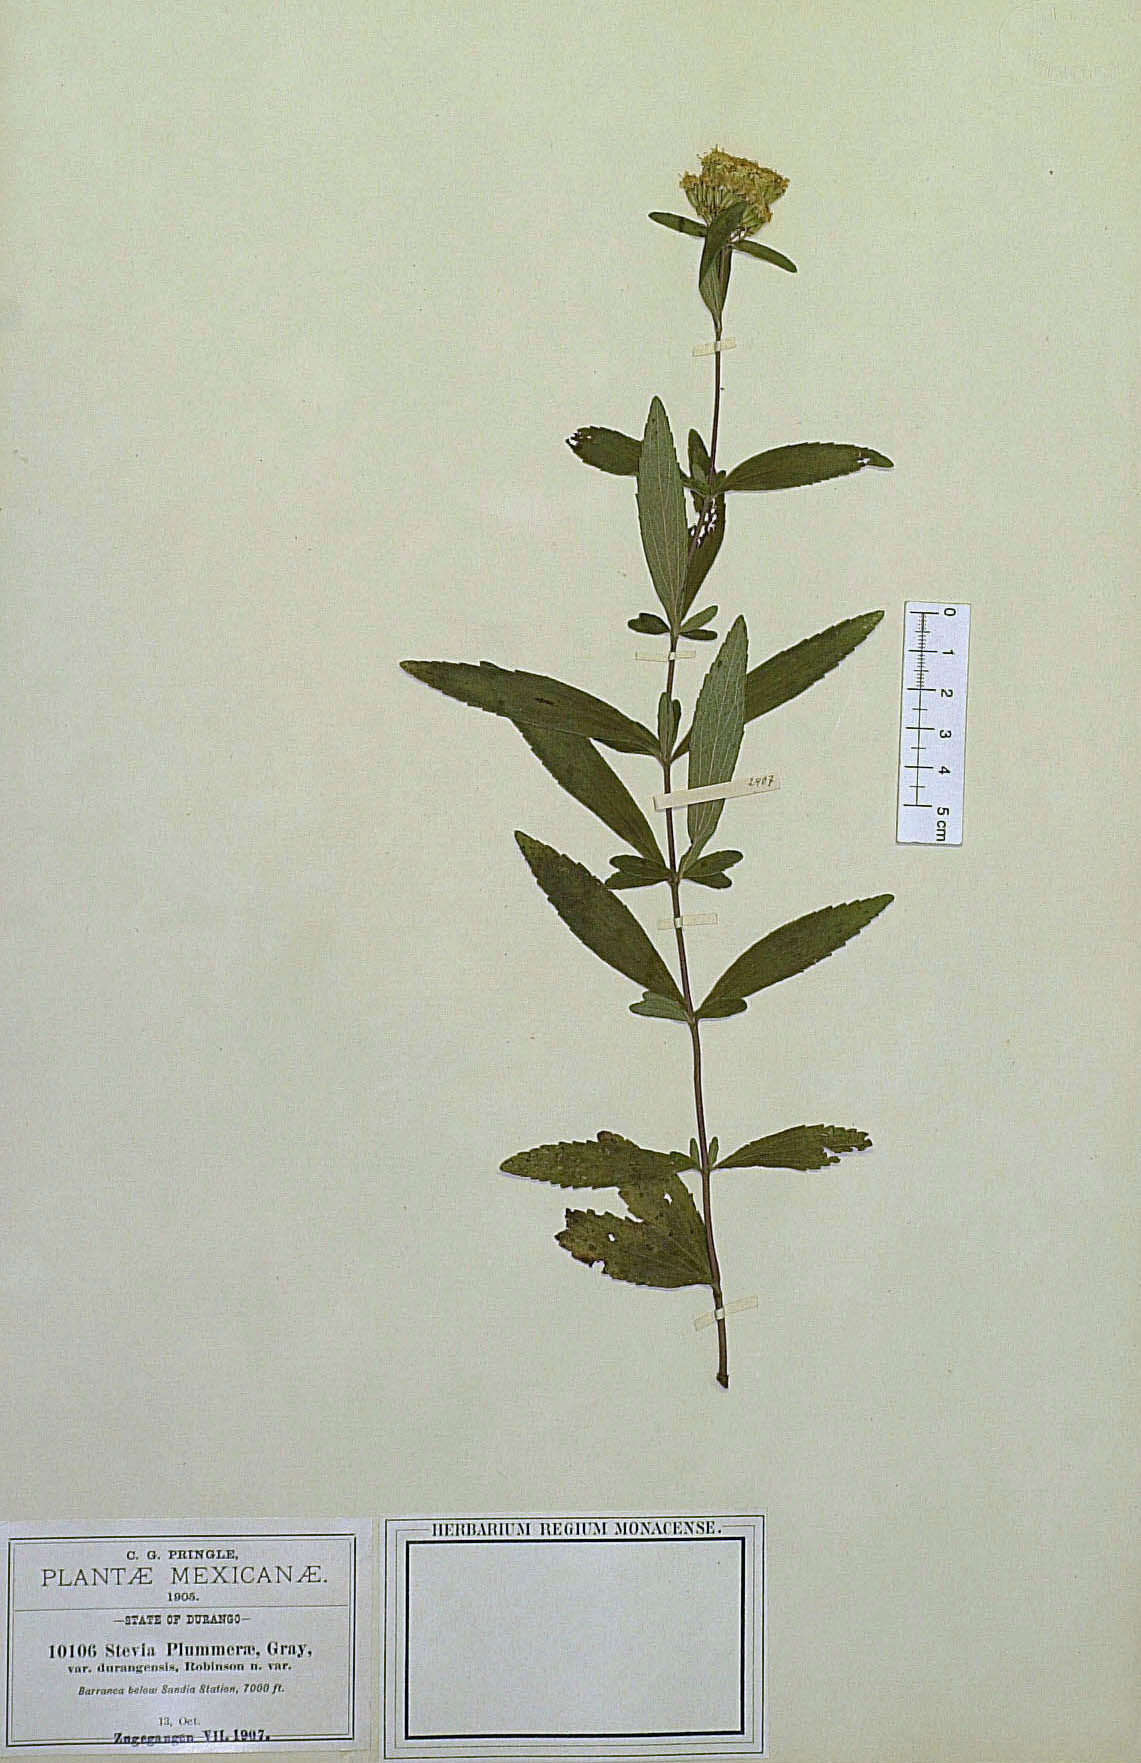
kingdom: Plantae
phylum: Tracheophyta
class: Magnoliopsida
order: Asterales
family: Asteraceae
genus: Stevia
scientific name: Stevia plummerae
